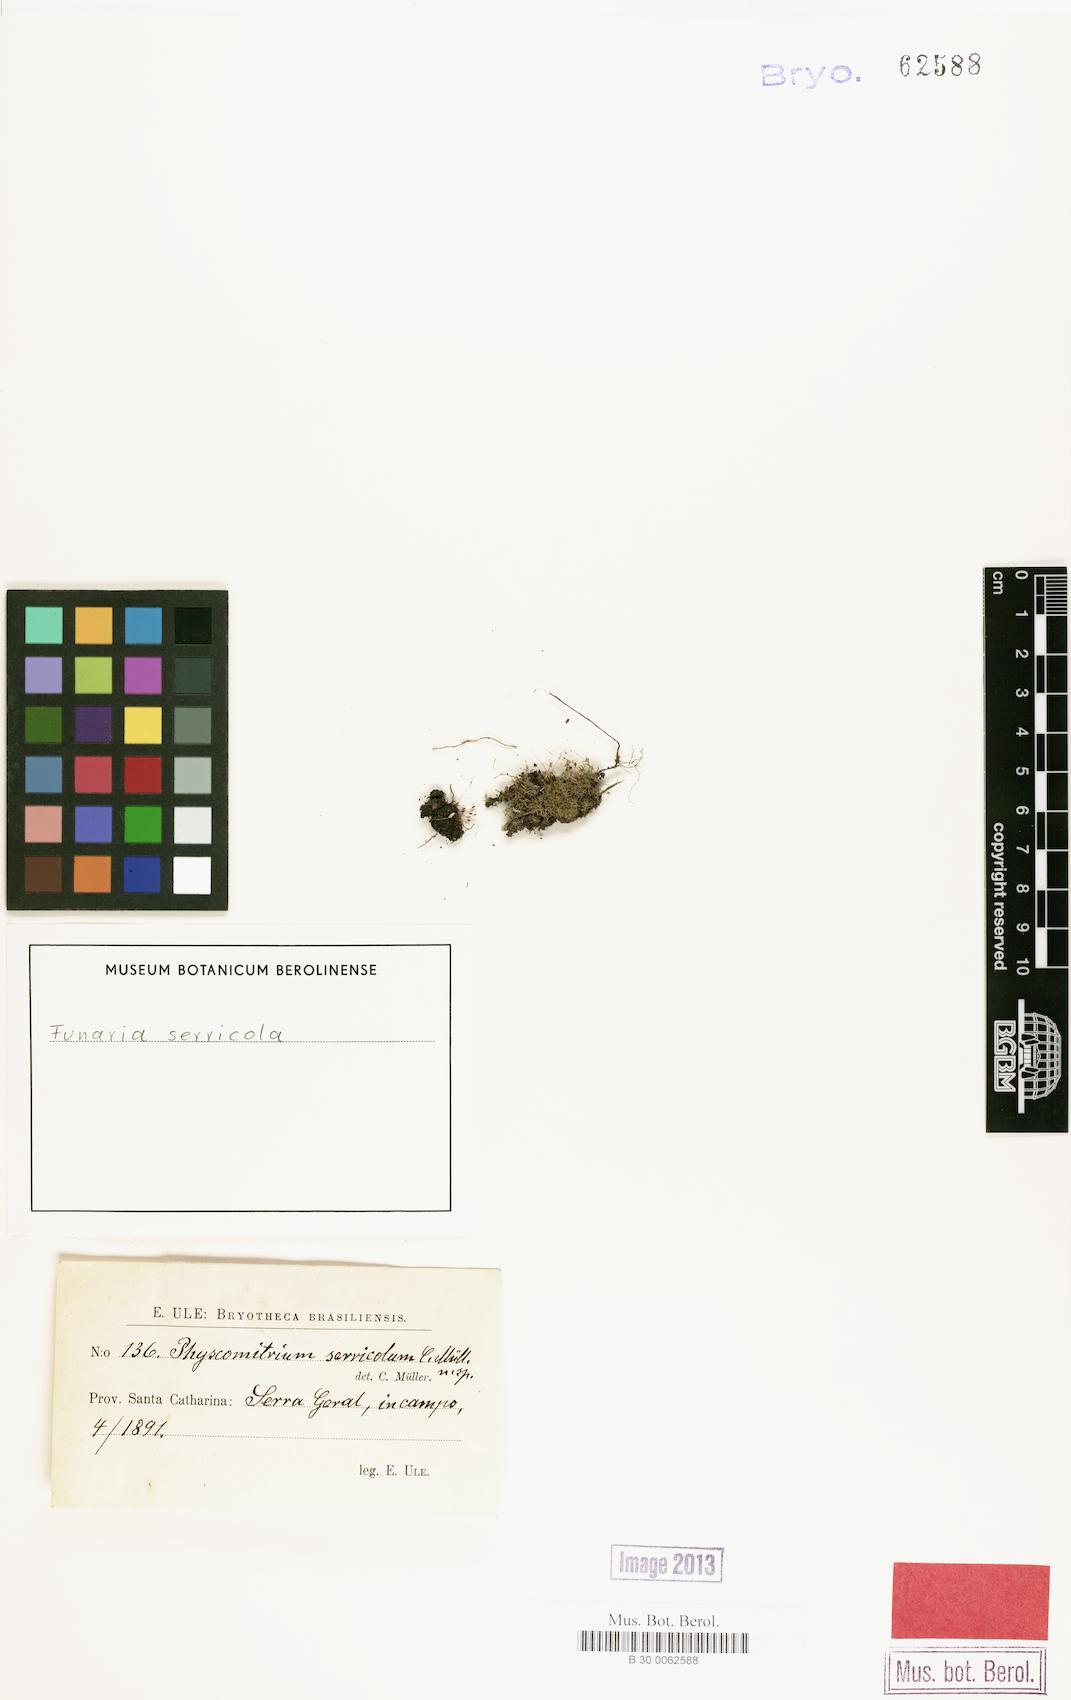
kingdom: Plantae
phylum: Bryophyta
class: Bryopsida
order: Funariales
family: Funariaceae
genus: Entosthodon
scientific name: Entosthodon bonplandii
